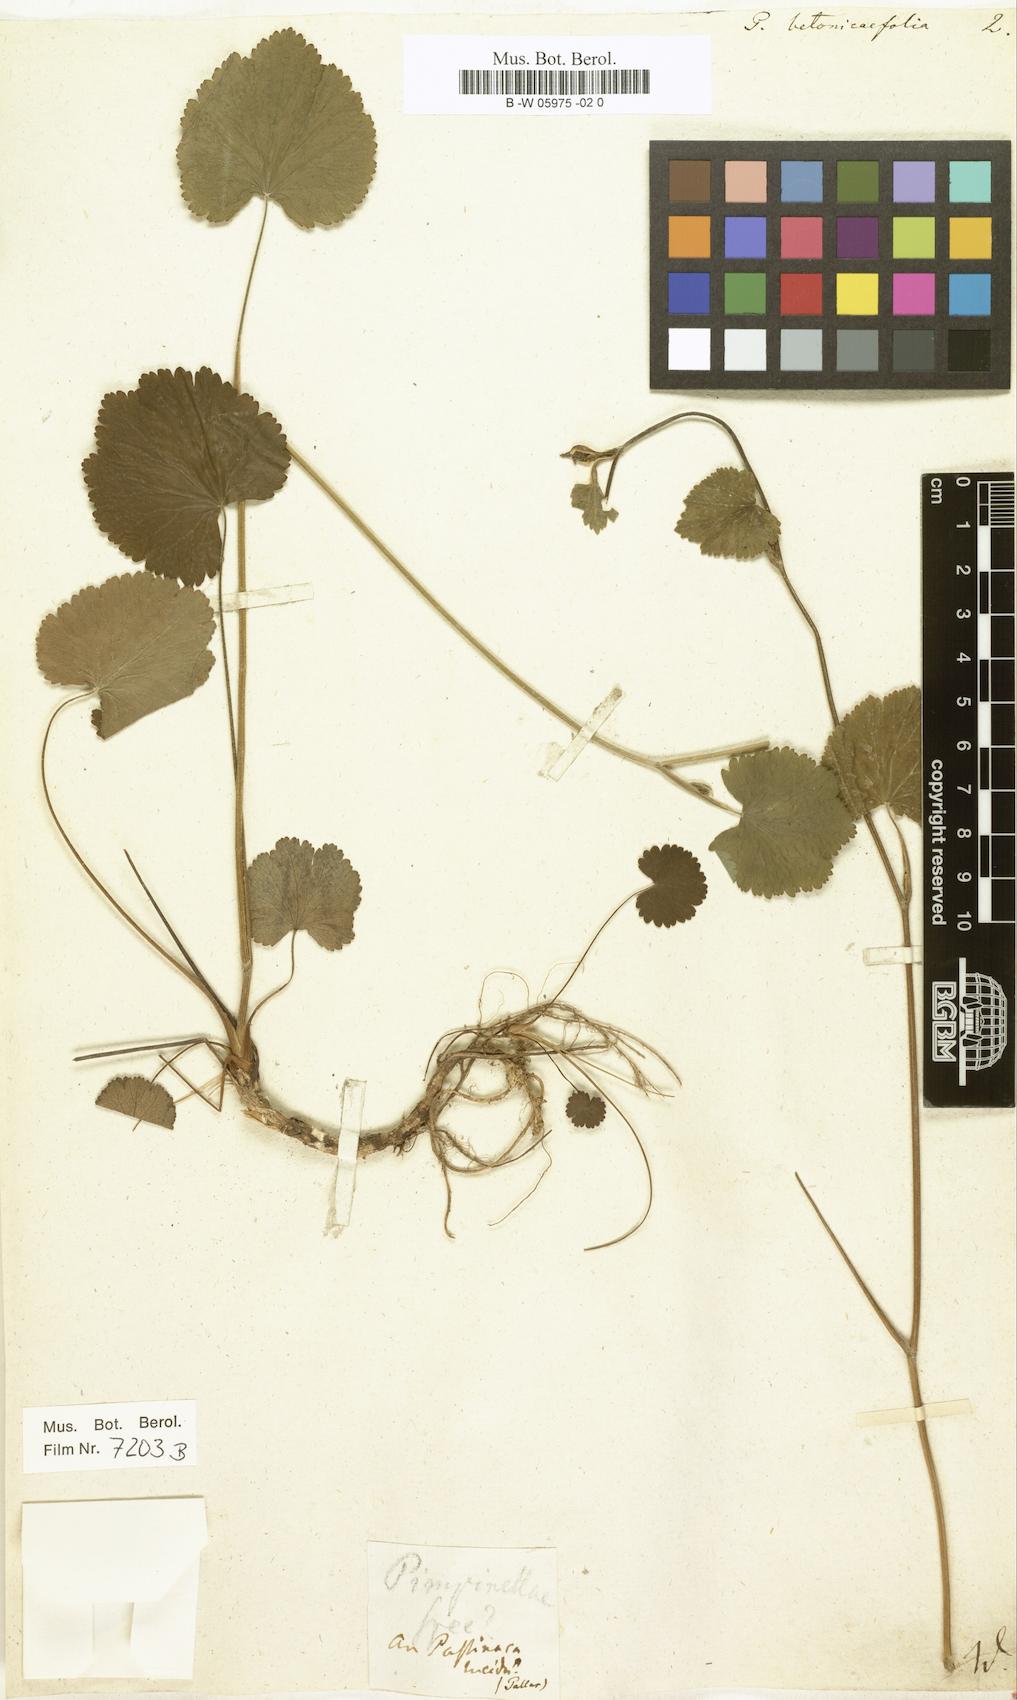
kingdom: Plantae
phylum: Tracheophyta
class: Magnoliopsida
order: Apiales
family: Apiaceae
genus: Pimpinella
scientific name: Pimpinella tripartita
